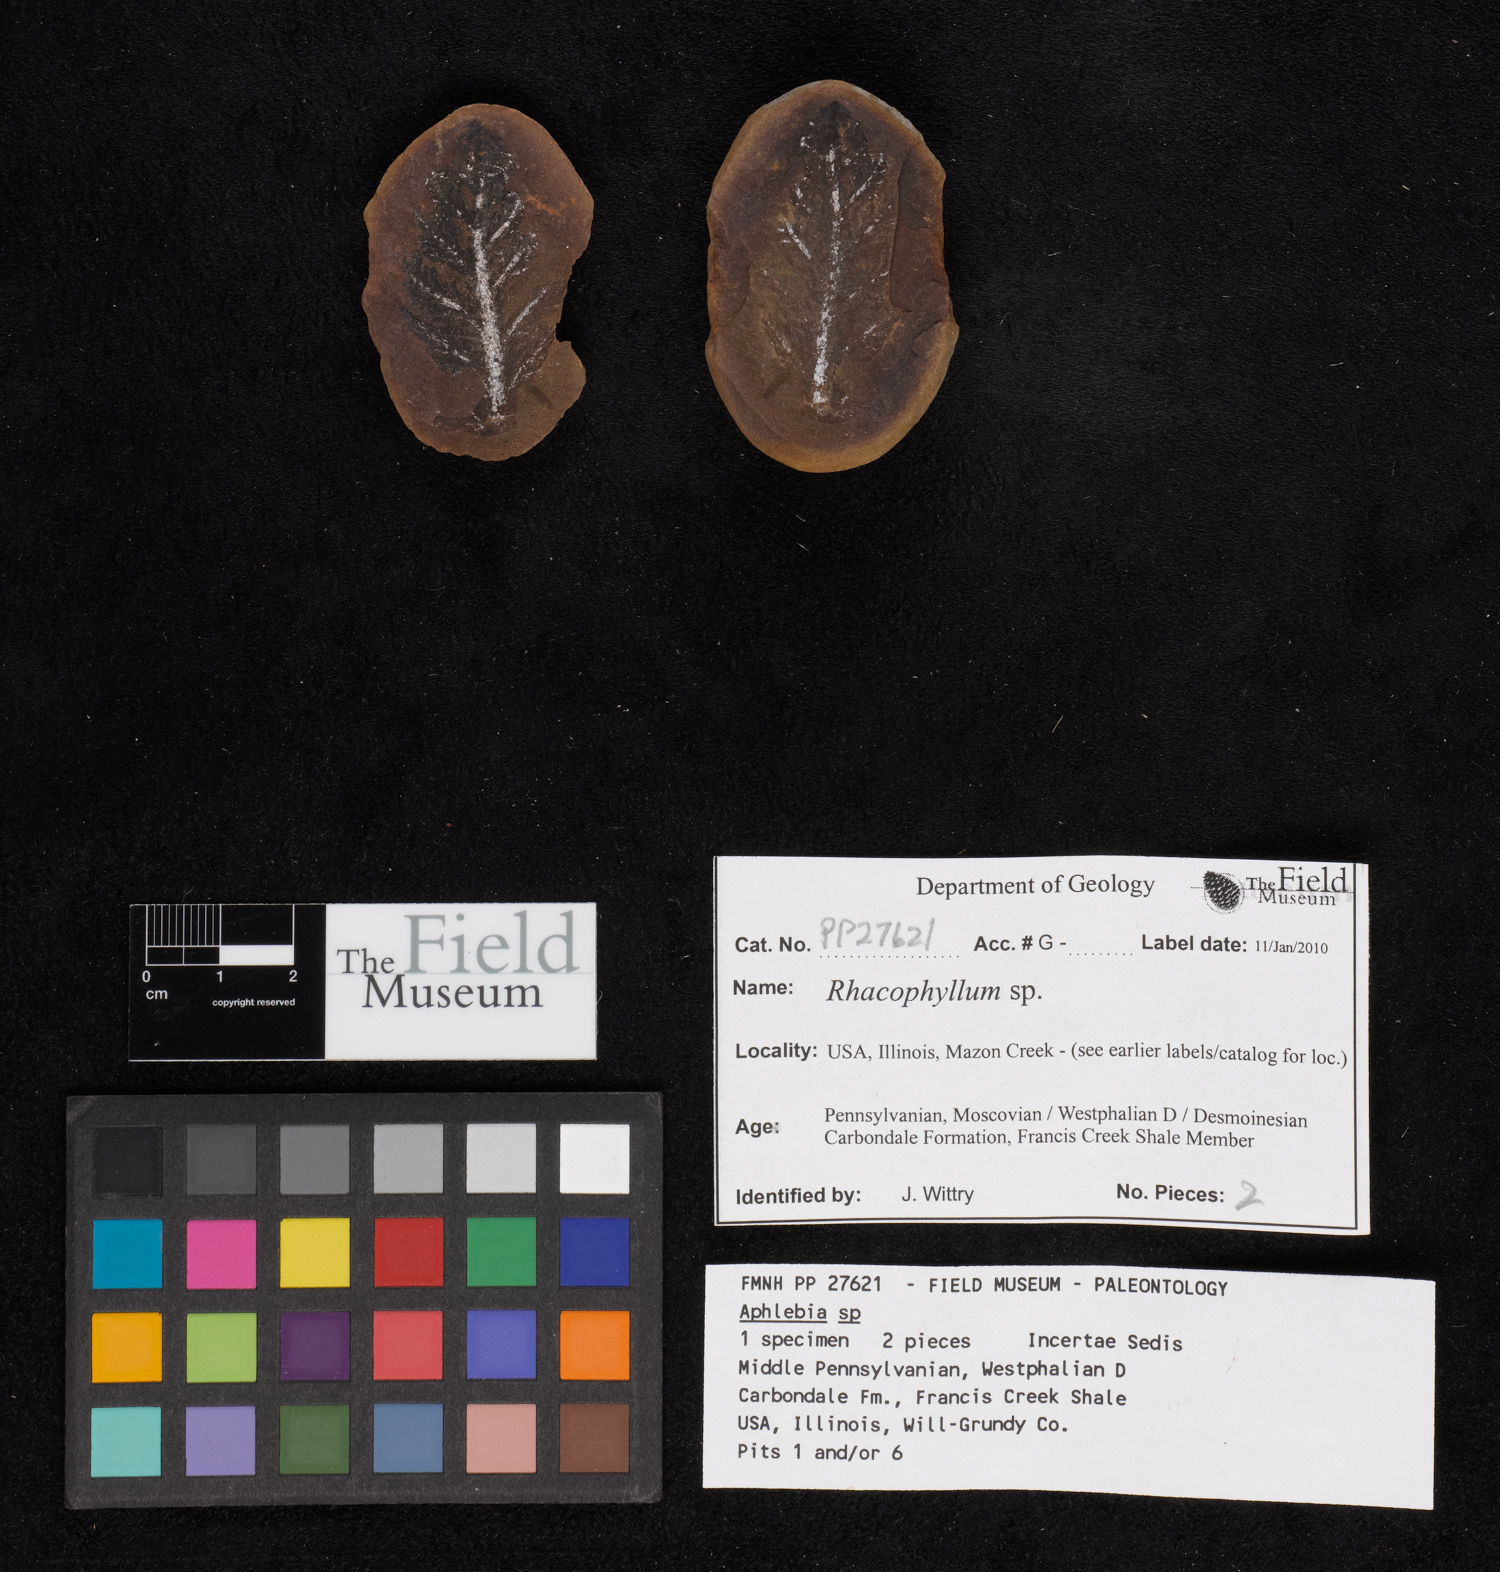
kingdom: Plantae
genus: Rhacophyllum
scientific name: Rhacophyllum
